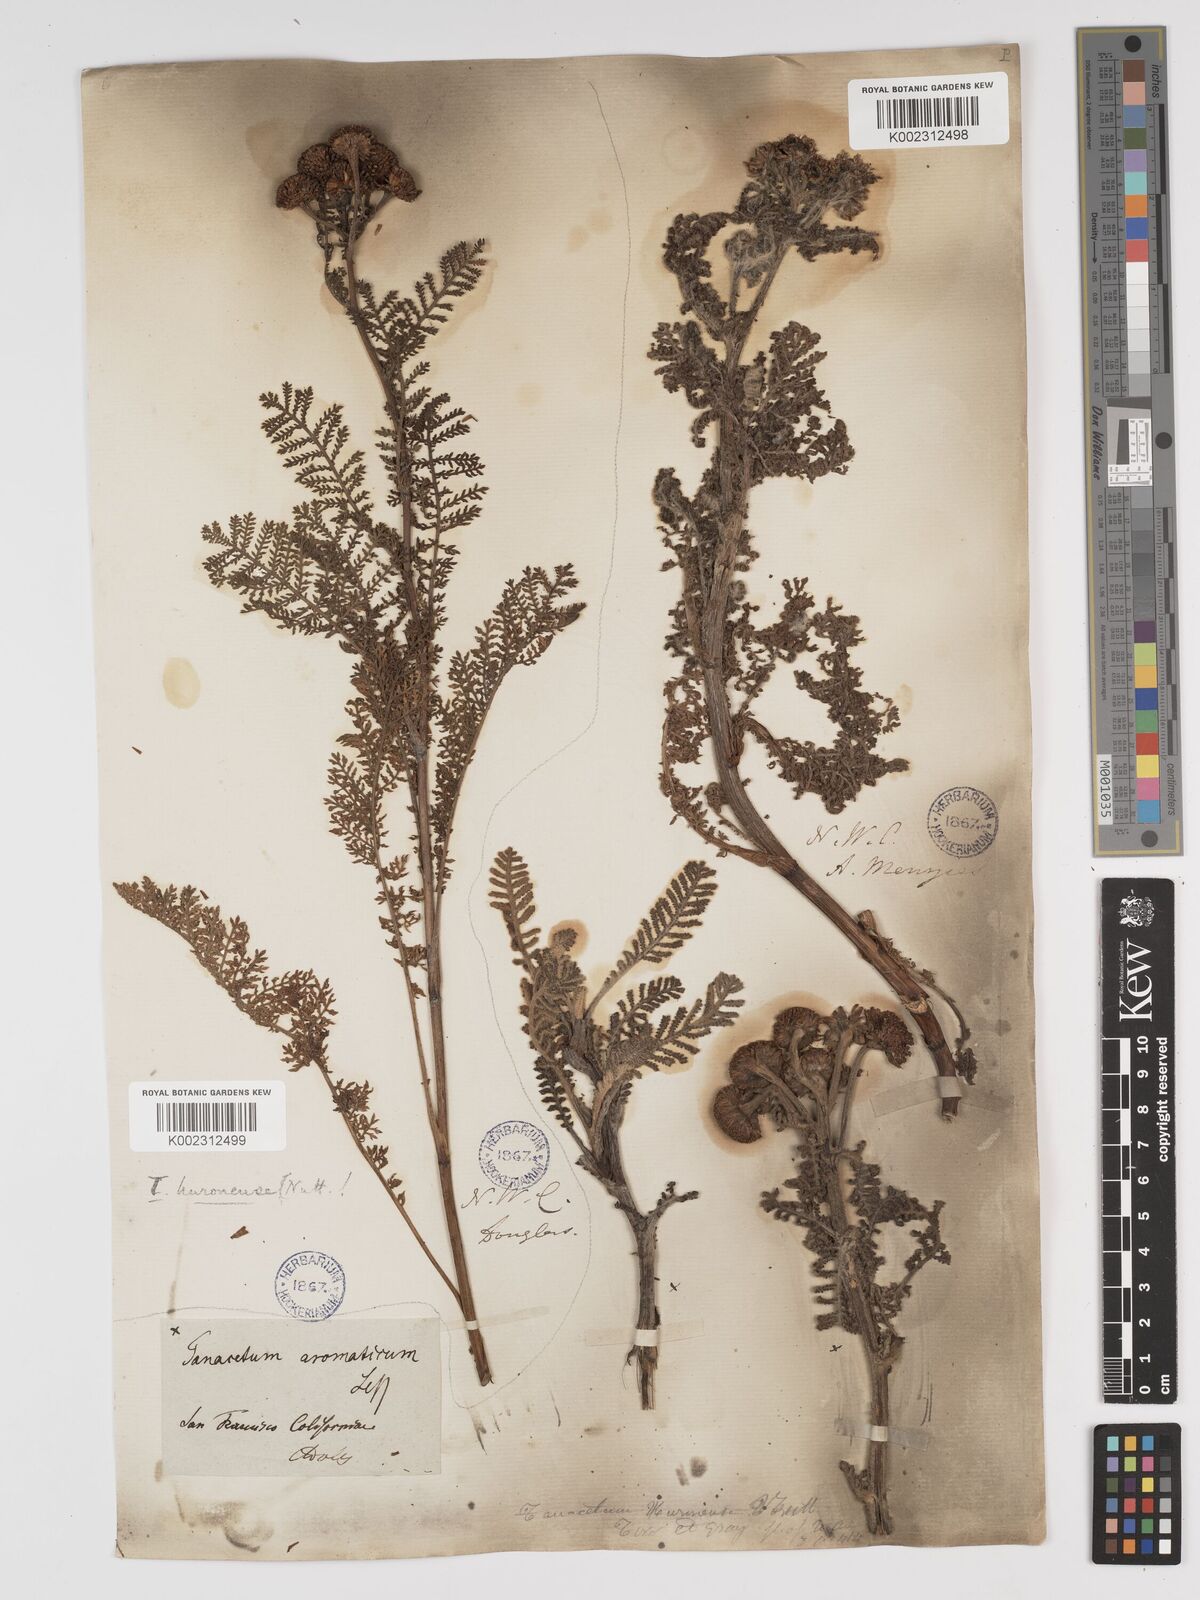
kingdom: Plantae
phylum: Tracheophyta
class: Magnoliopsida
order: Asterales
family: Asteraceae
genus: Tanacetum
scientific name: Tanacetum bipinnatum
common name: Dwarf tansy
